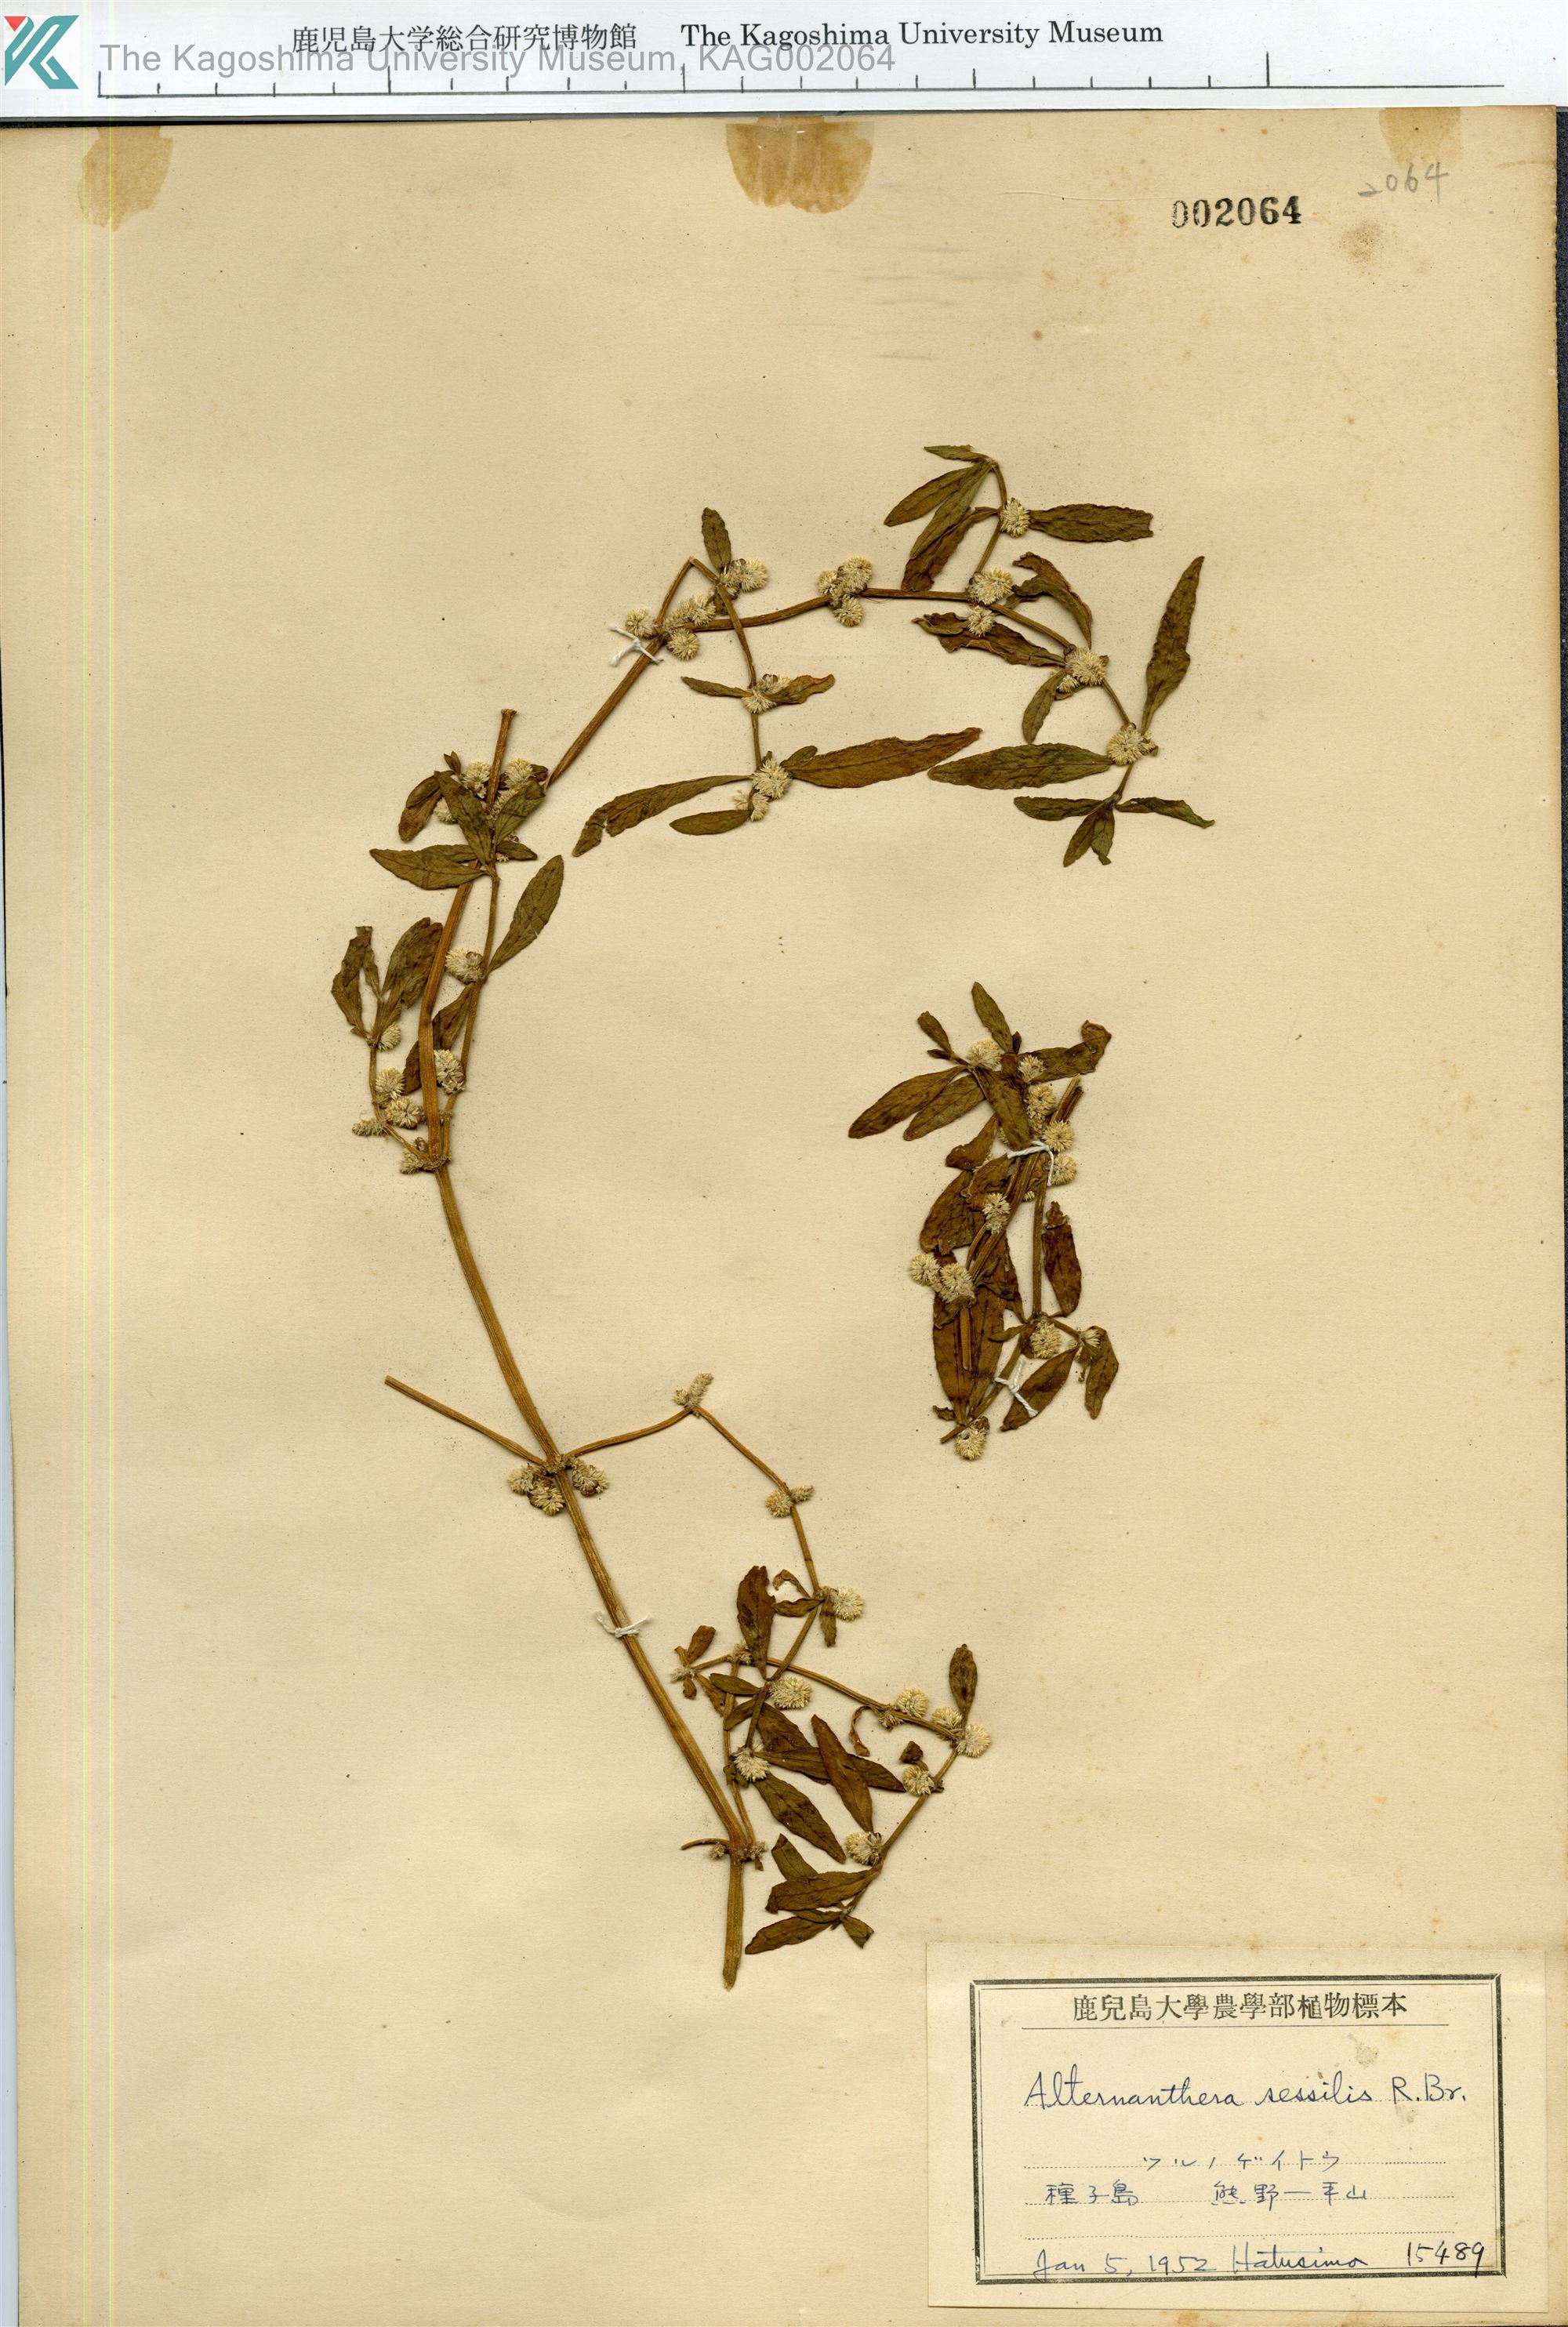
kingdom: Plantae
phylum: Tracheophyta
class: Magnoliopsida
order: Caryophyllales
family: Amaranthaceae
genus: Alternanthera
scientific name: Alternanthera sessilis
